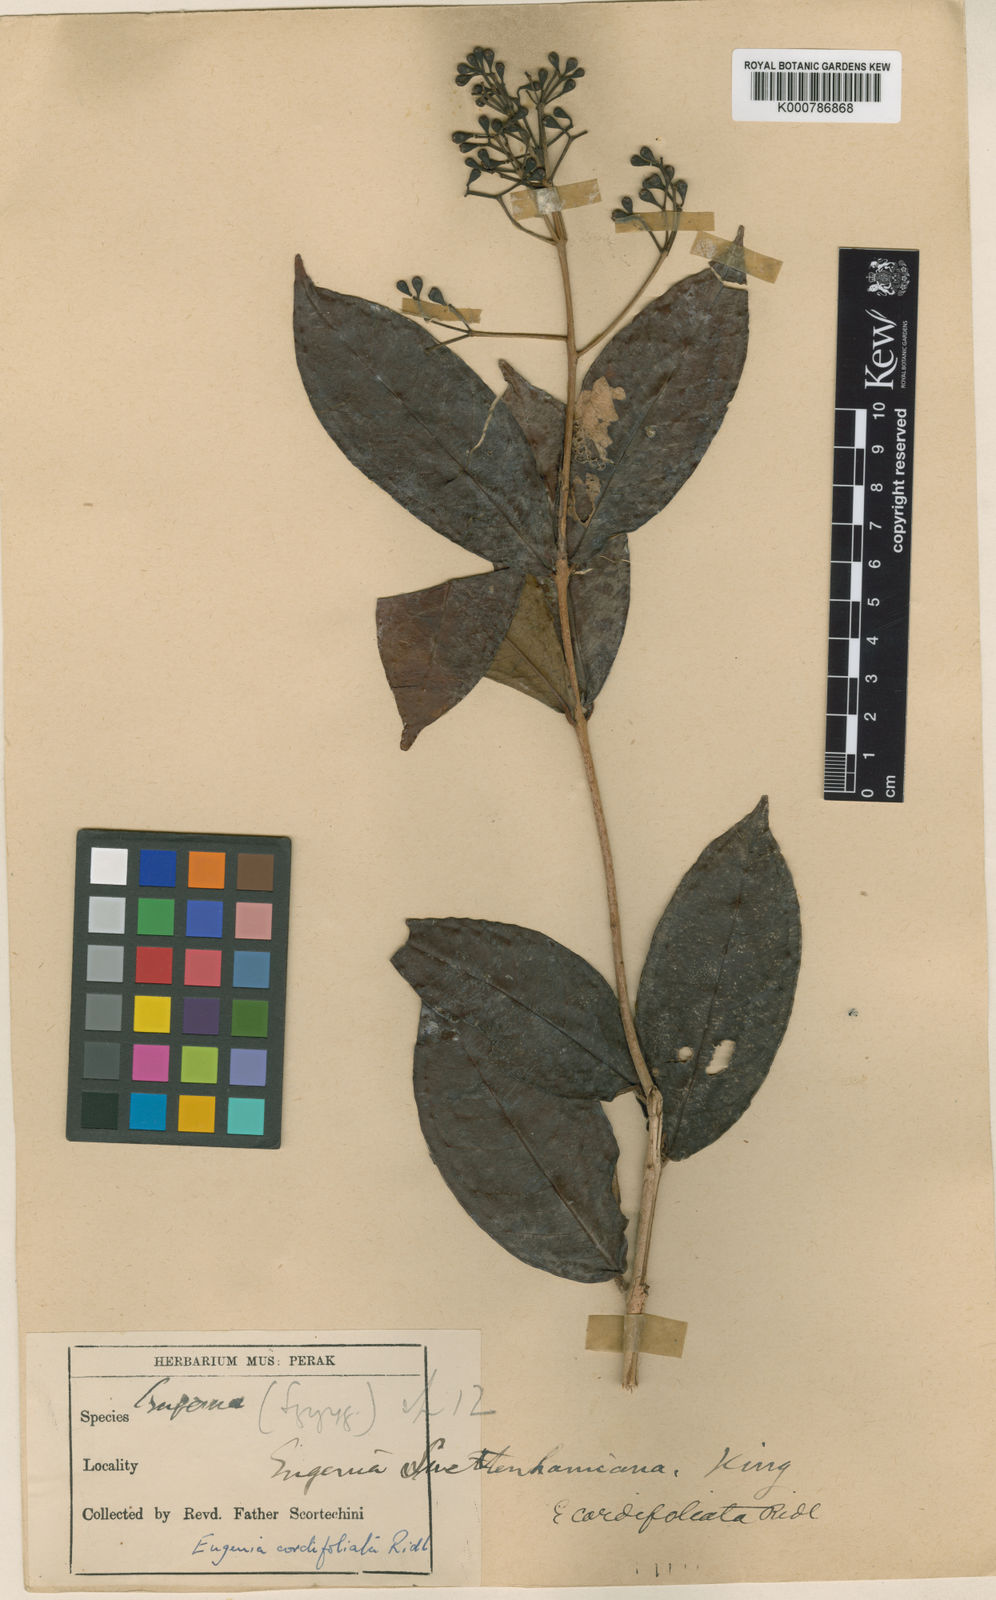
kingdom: Plantae
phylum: Tracheophyta
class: Magnoliopsida
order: Myrtales
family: Myrtaceae
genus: Syzygium
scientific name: Syzygium cordifoliatum
